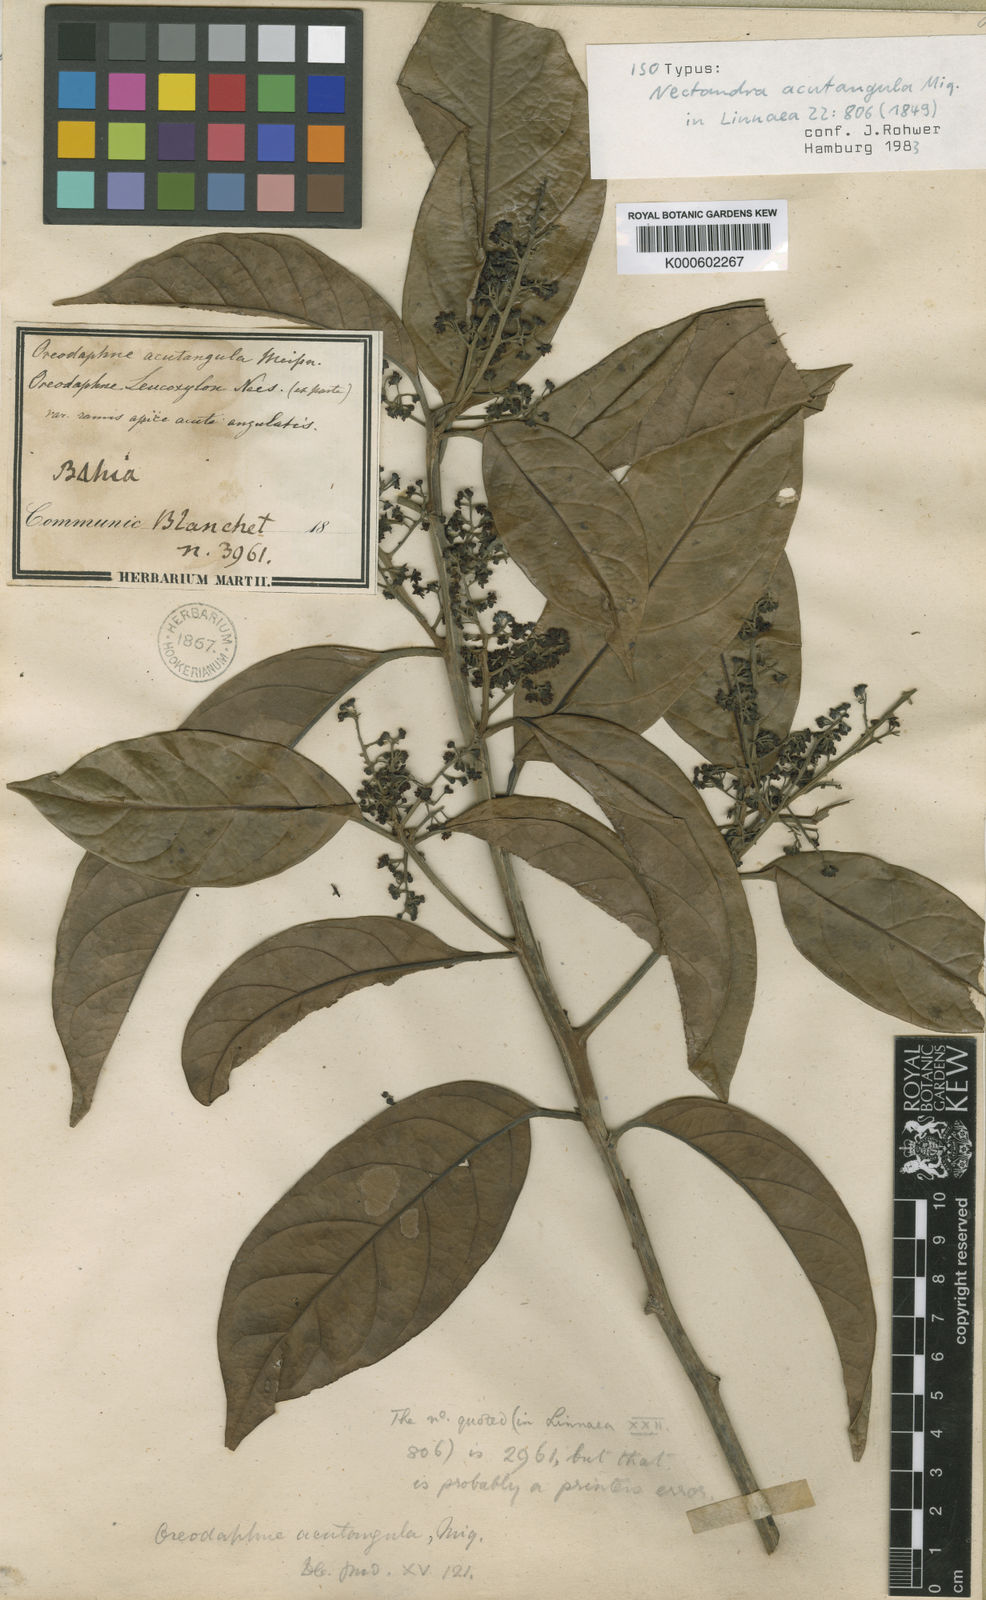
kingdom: Plantae
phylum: Tracheophyta
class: Magnoliopsida
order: Laurales
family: Lauraceae
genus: Ocotea
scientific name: Ocotea acutangula
